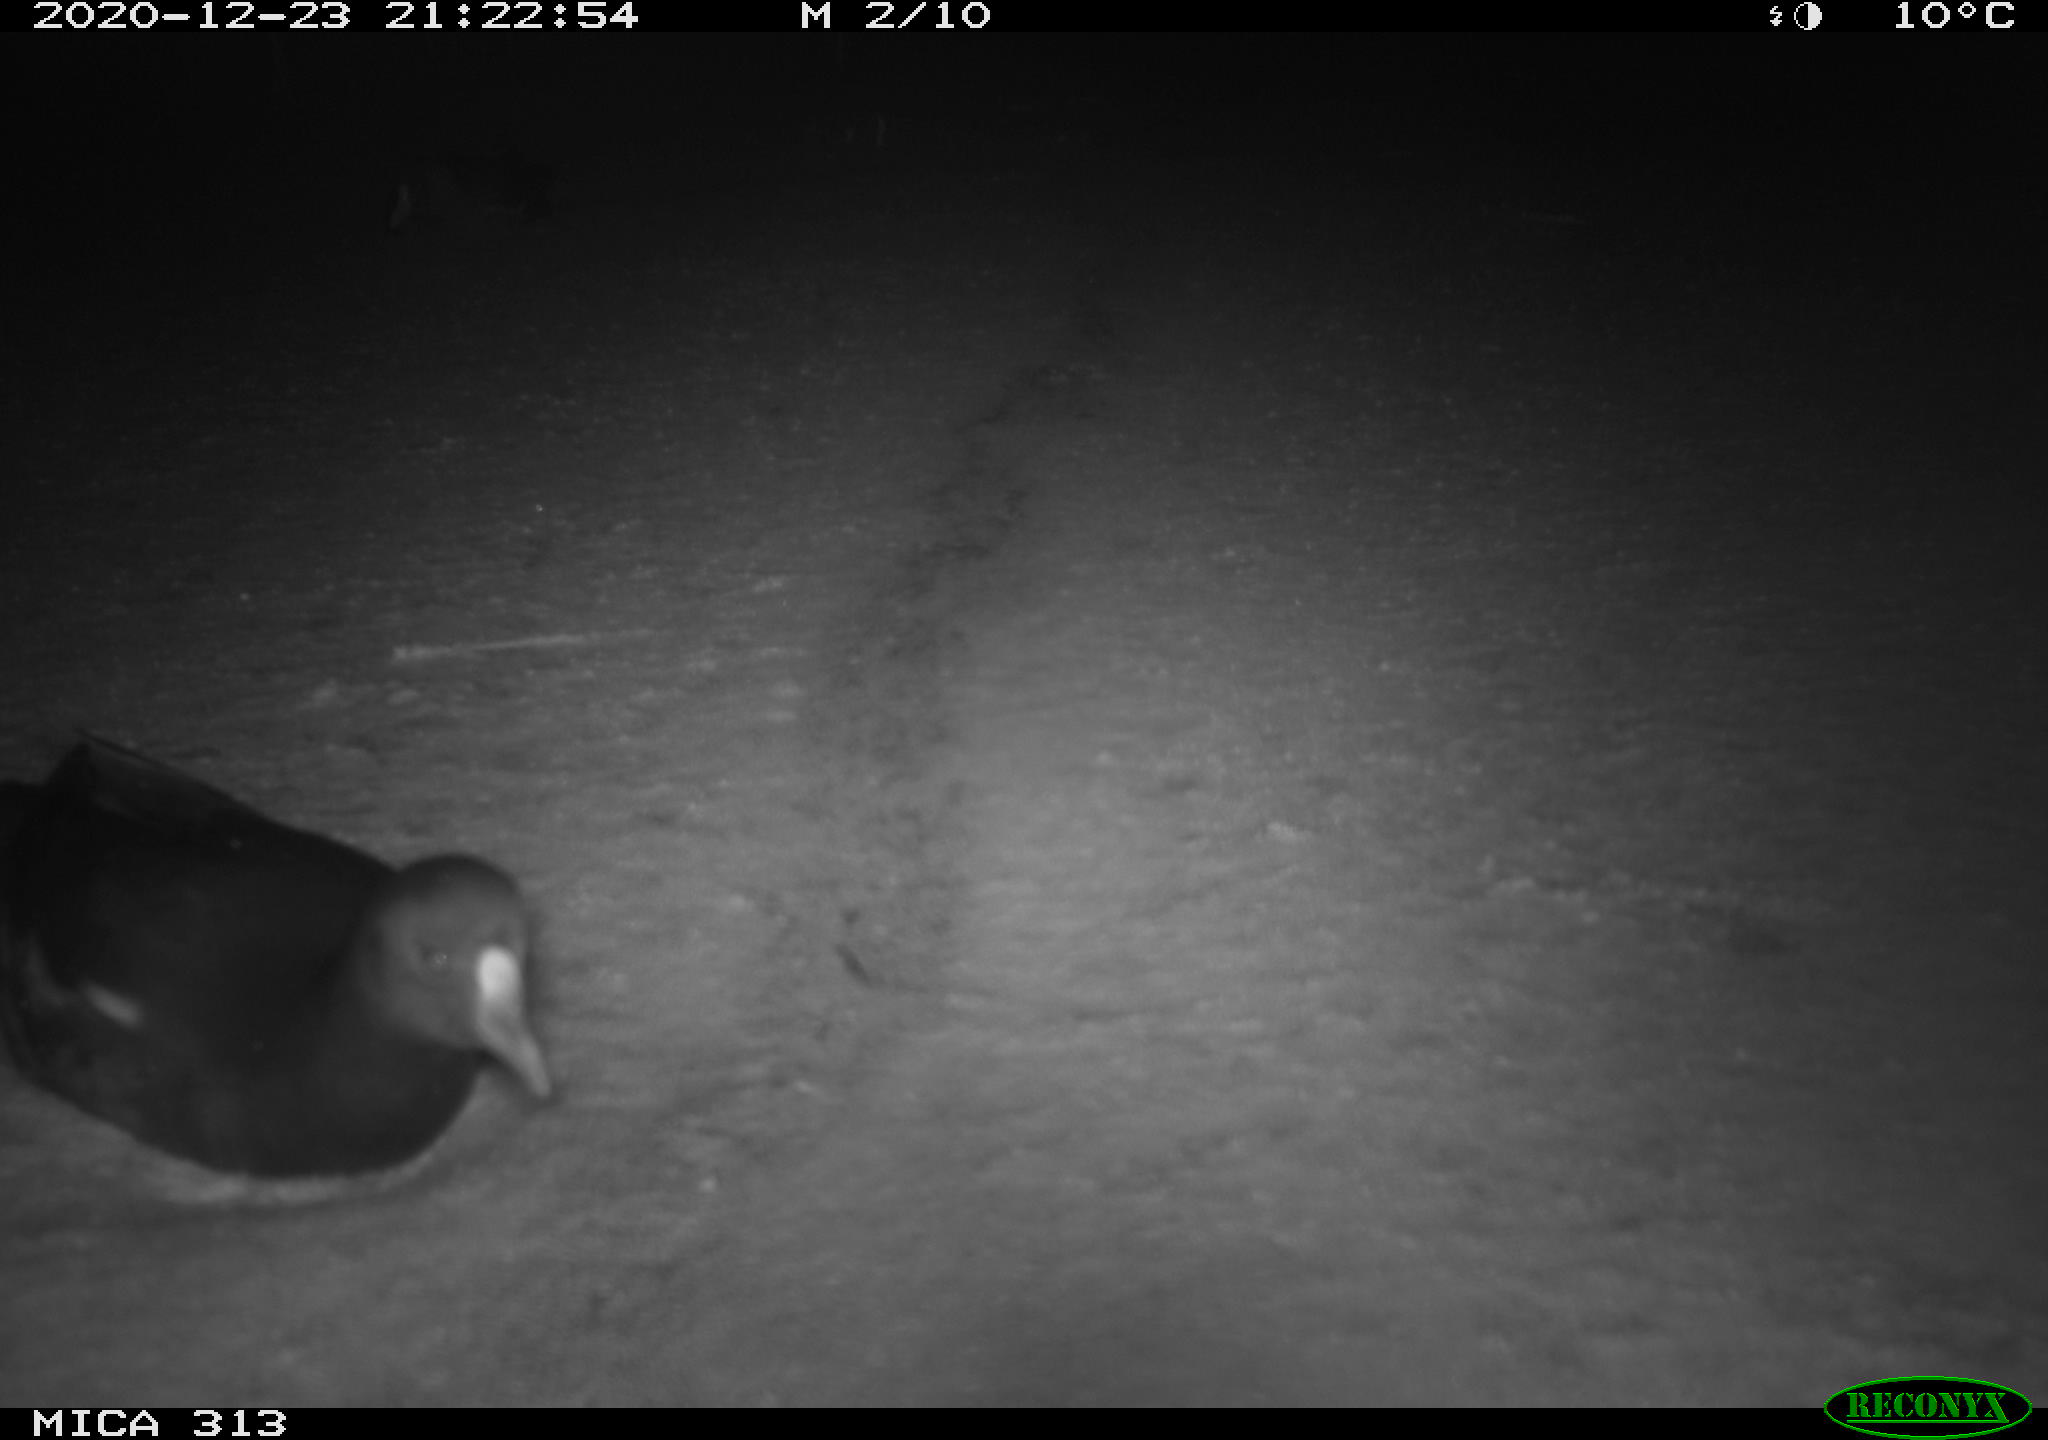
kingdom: Animalia
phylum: Chordata
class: Aves
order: Gruiformes
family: Rallidae
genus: Fulica
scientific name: Fulica atra
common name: Eurasian coot
